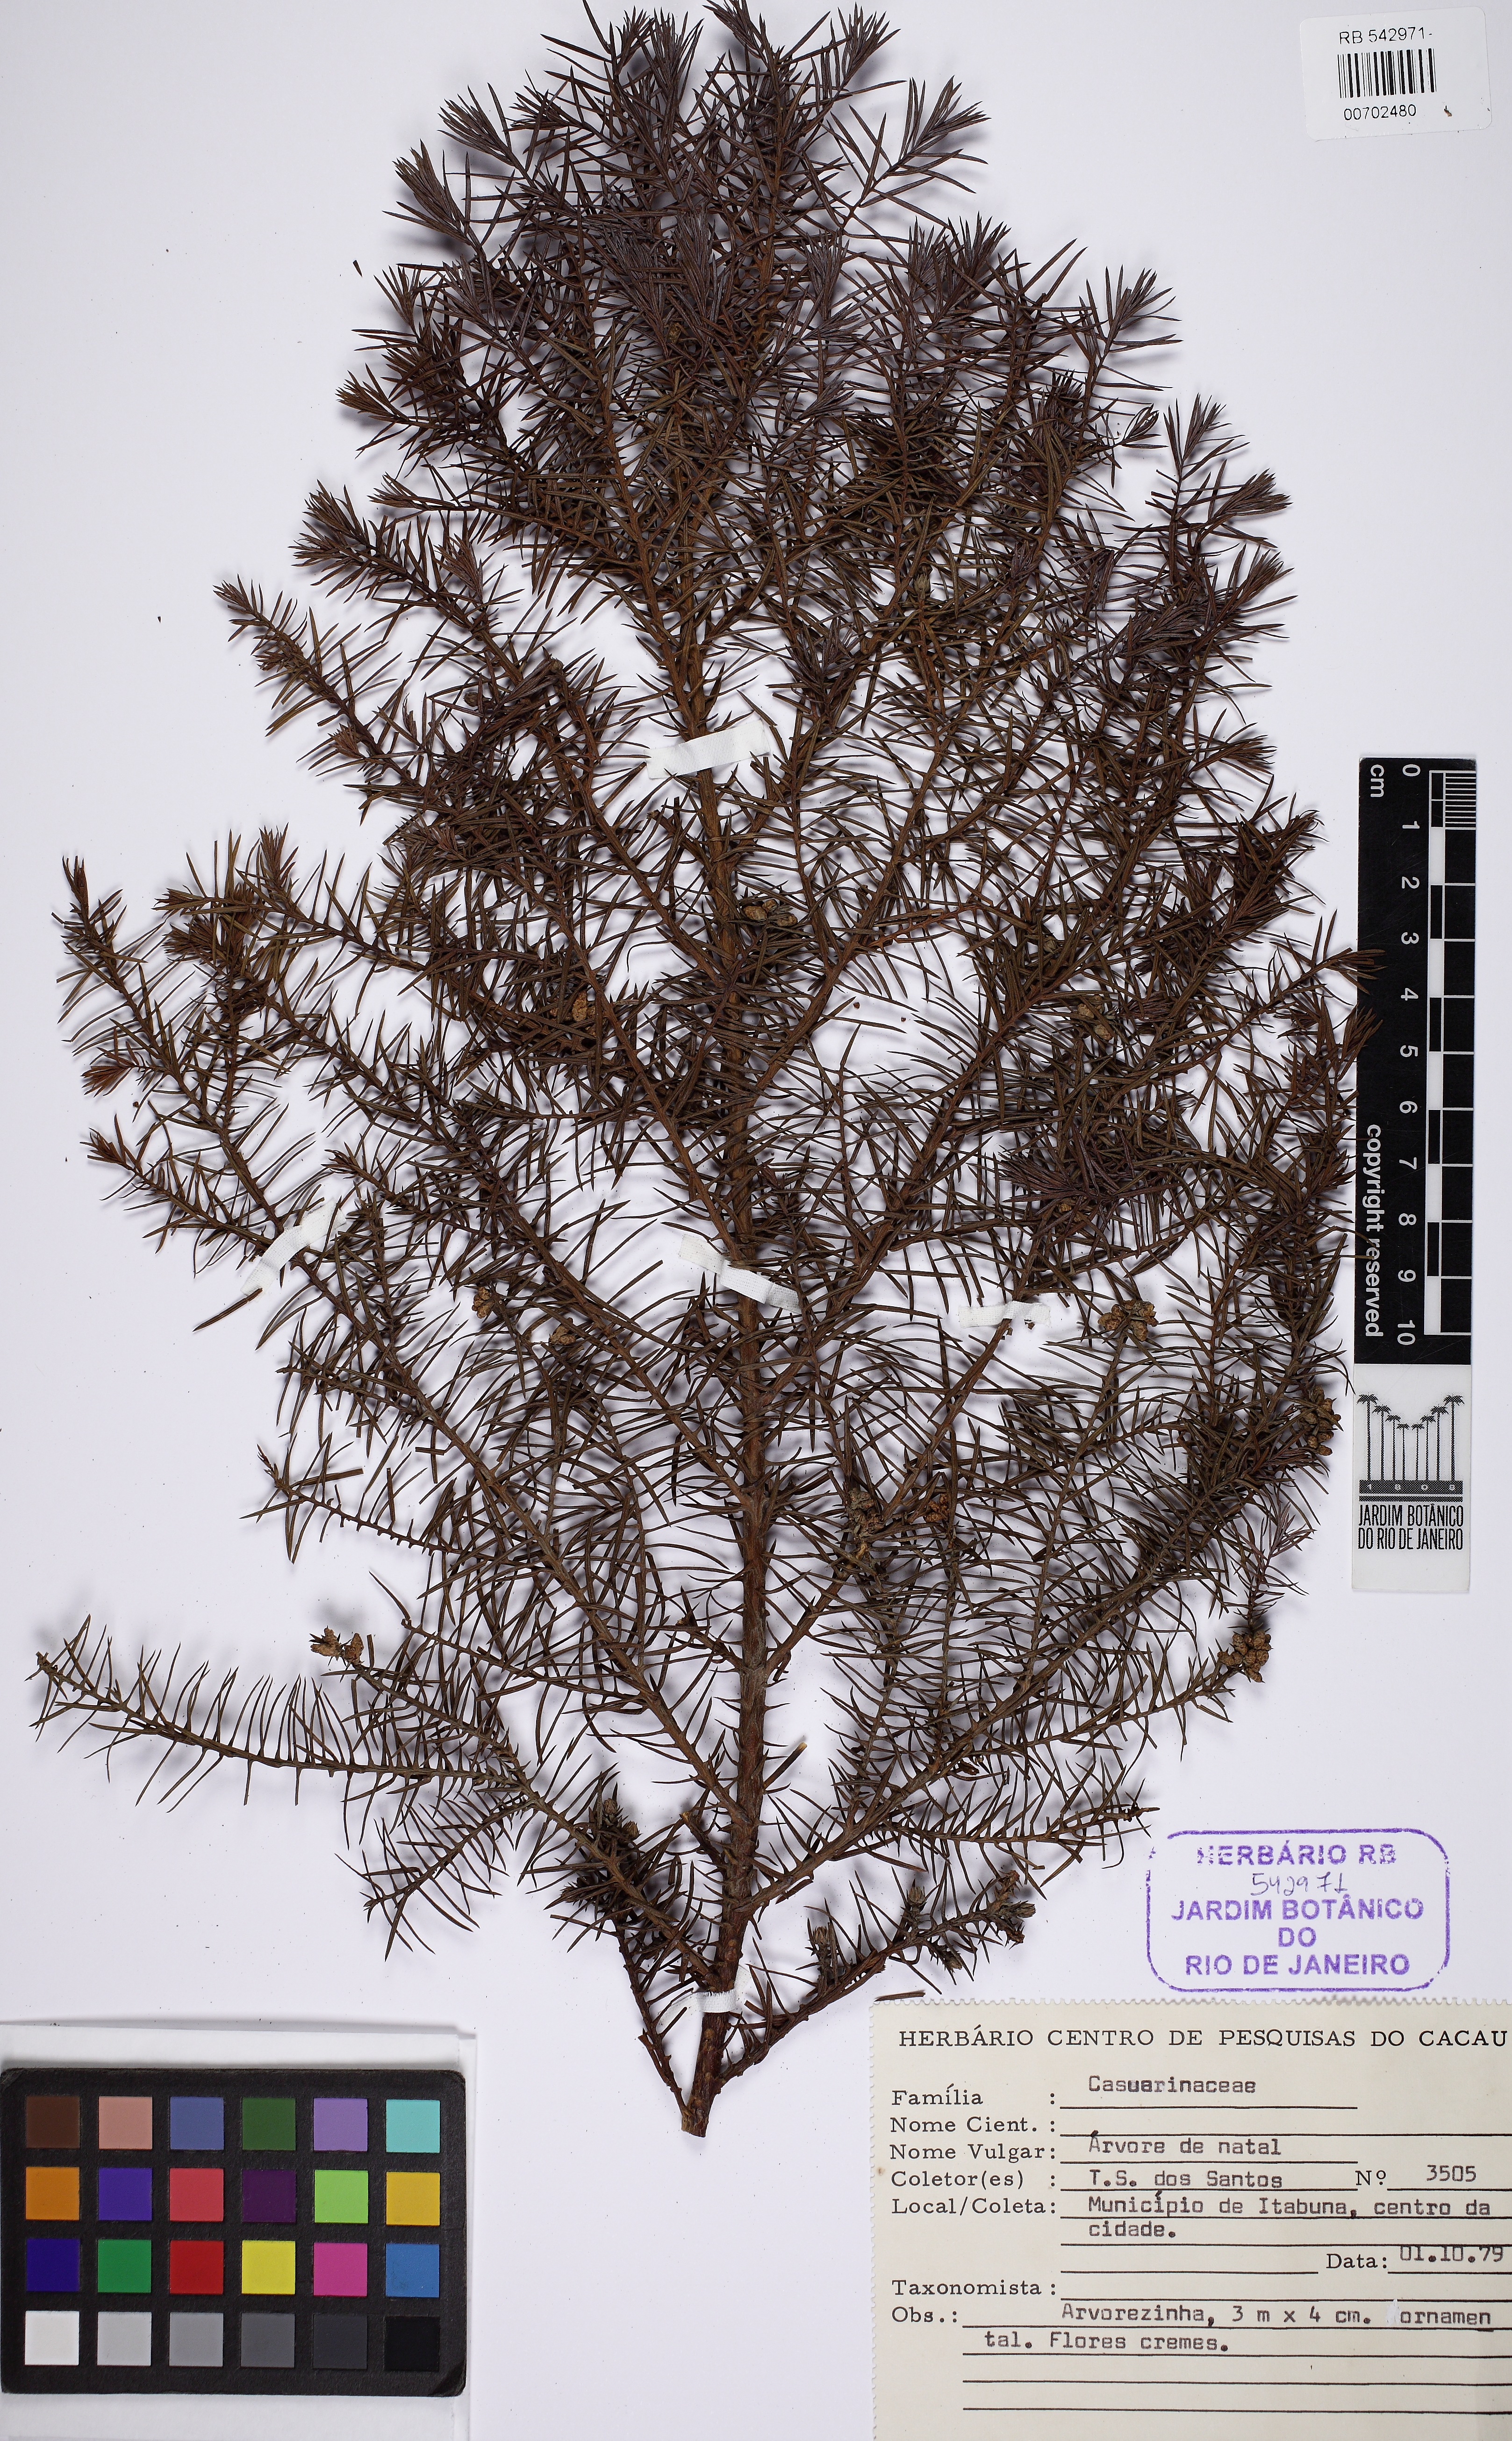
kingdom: Plantae
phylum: Tracheophyta
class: Magnoliopsida
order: Fagales
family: Casuarinaceae
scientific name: Casuarinaceae
